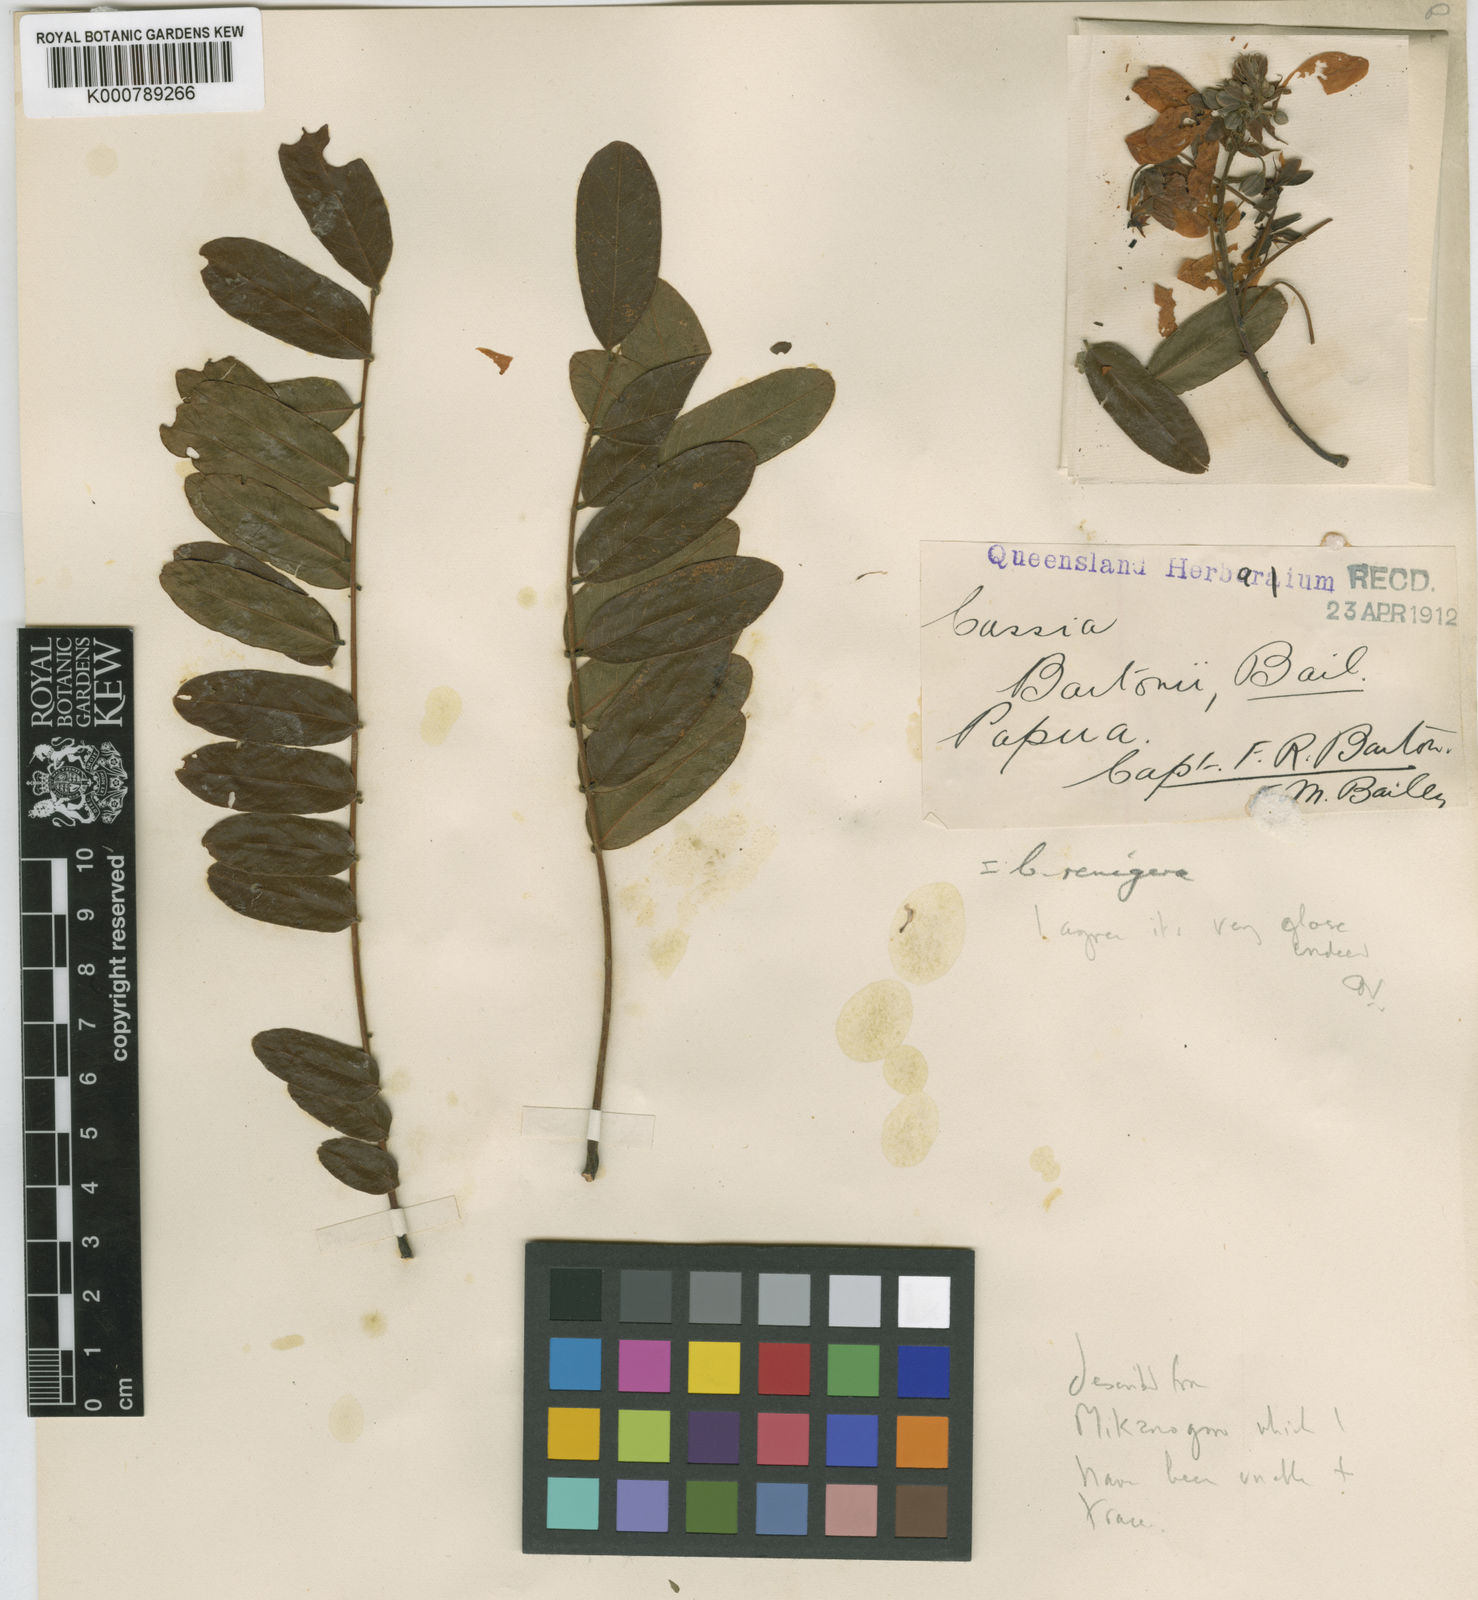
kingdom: Plantae
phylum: Tracheophyta
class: Magnoliopsida
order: Fabales
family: Fabaceae
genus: Cassia
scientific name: Cassia javanica
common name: Apple blossom
